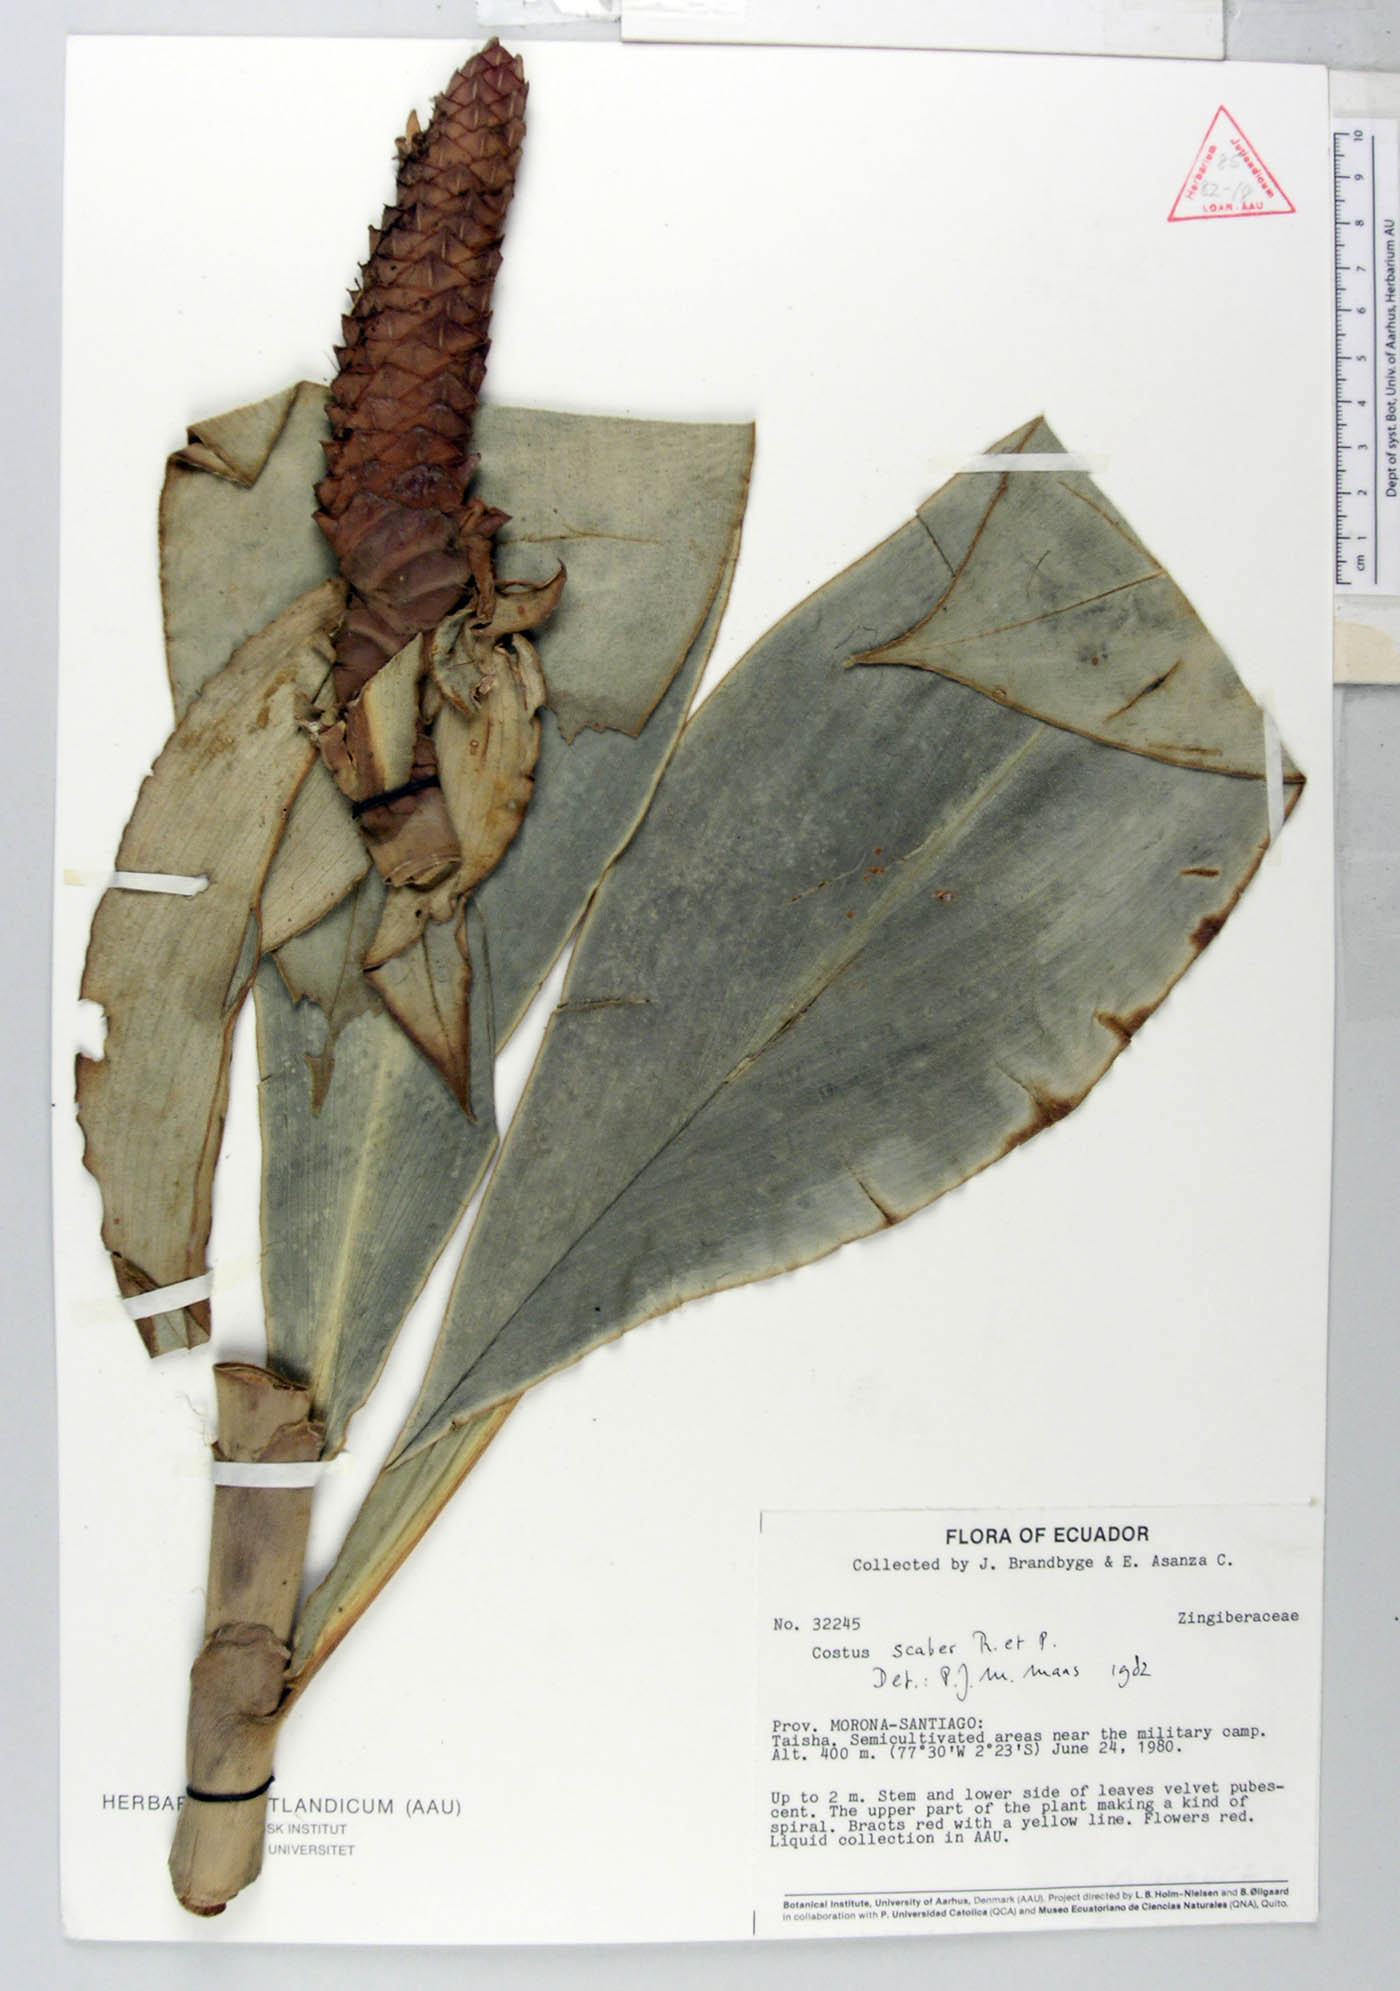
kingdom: Plantae
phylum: Tracheophyta
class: Liliopsida
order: Zingiberales
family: Costaceae
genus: Costus
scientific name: Costus scaber
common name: Spiral head ginger
